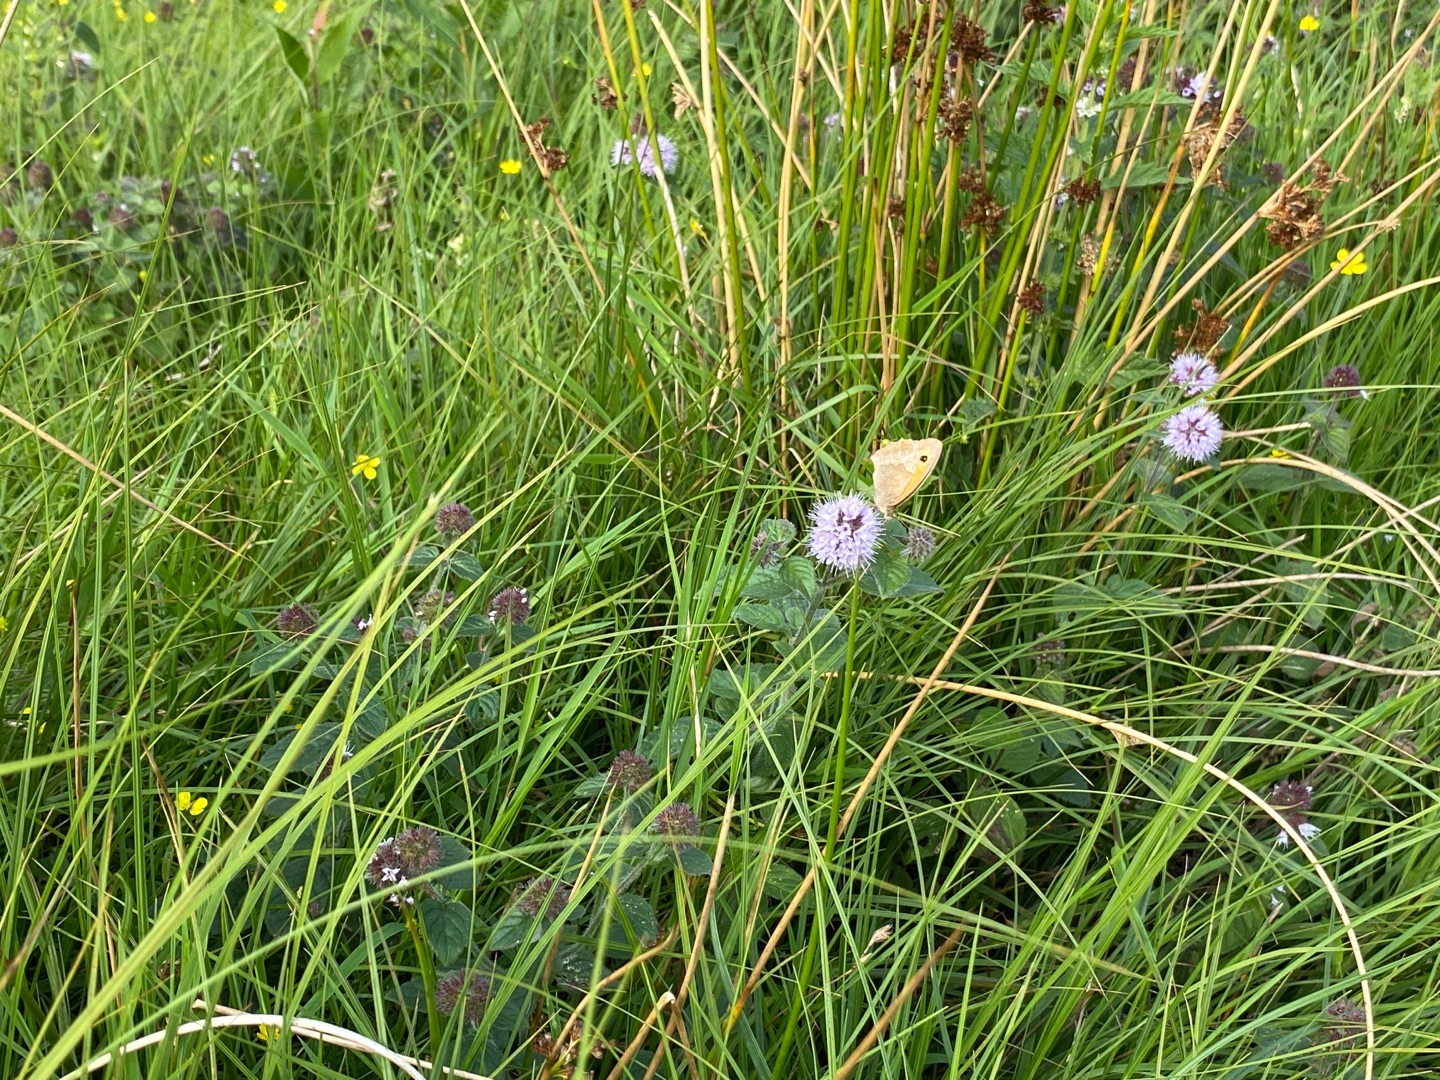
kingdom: Animalia
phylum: Arthropoda
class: Insecta
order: Lepidoptera
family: Nymphalidae
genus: Maniola
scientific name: Maniola jurtina
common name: Græsrandøje
